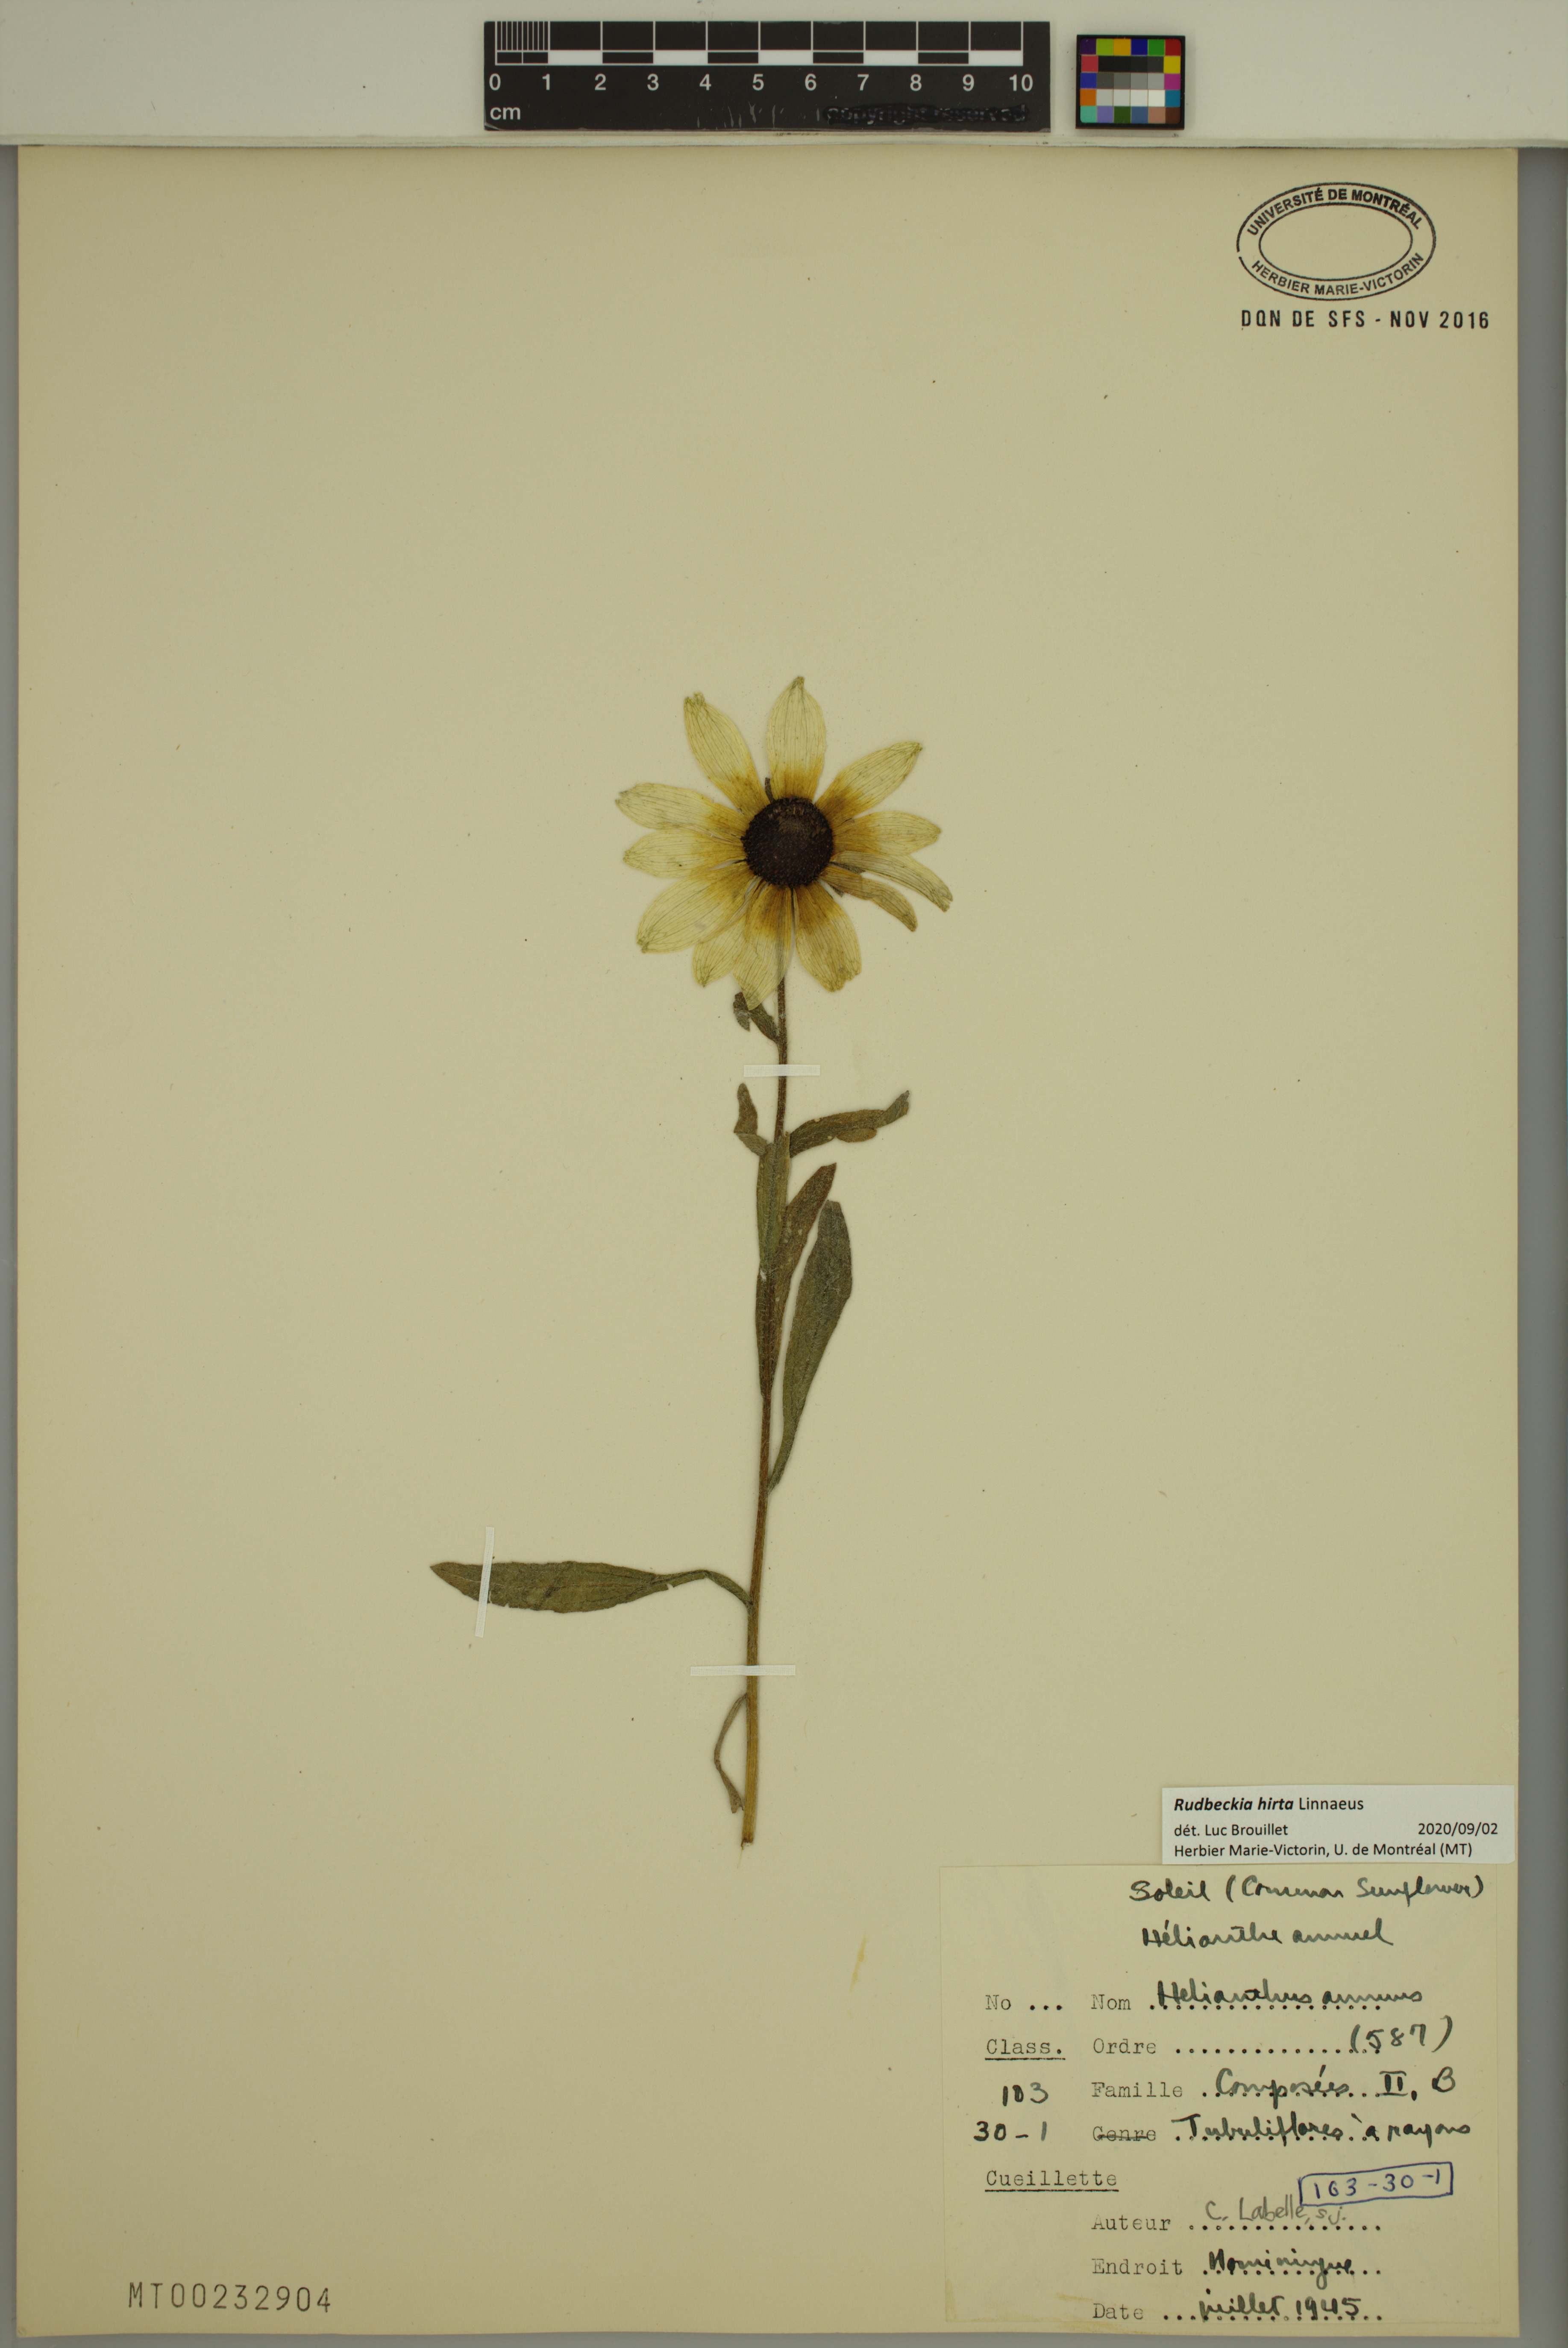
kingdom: Plantae
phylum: Tracheophyta
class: Magnoliopsida
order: Asterales
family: Asteraceae
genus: Rudbeckia
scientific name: Rudbeckia hirta
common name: Black-eyed-susan
